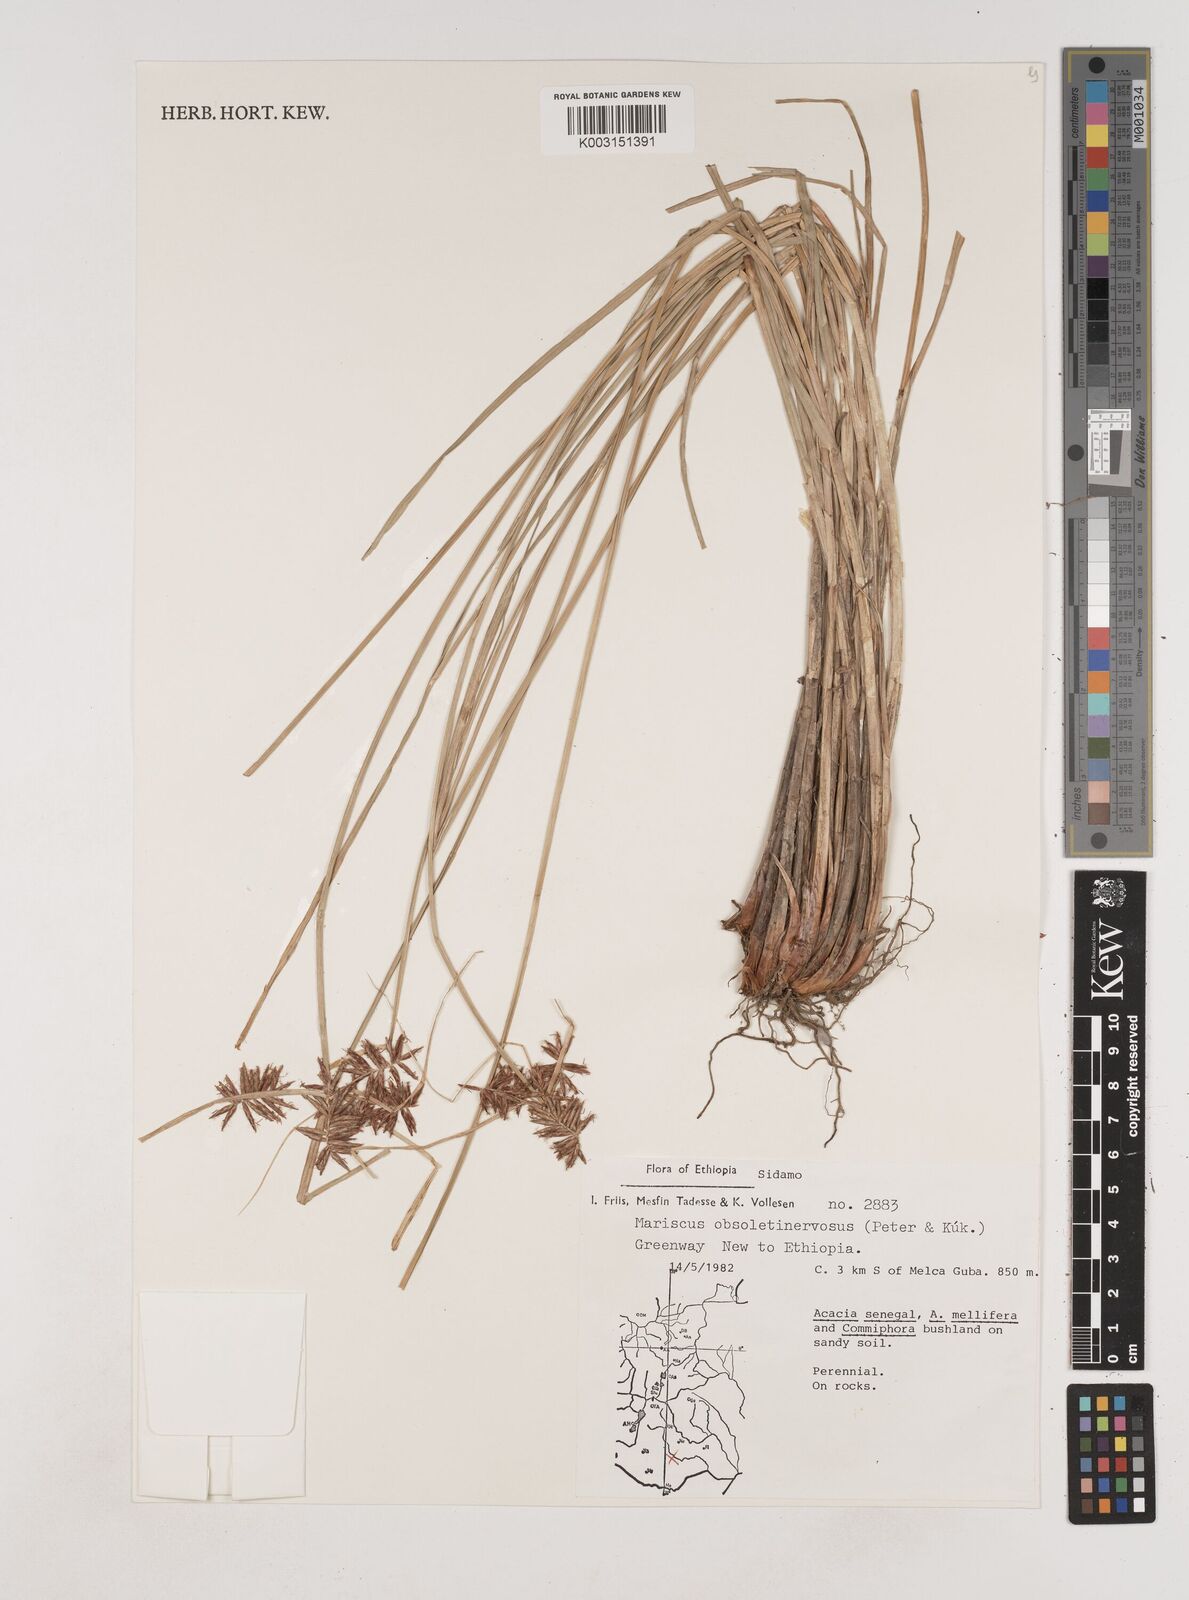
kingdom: Plantae
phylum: Tracheophyta
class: Liliopsida
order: Poales
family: Cyperaceae
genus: Cyperus
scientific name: Cyperus vestitus
